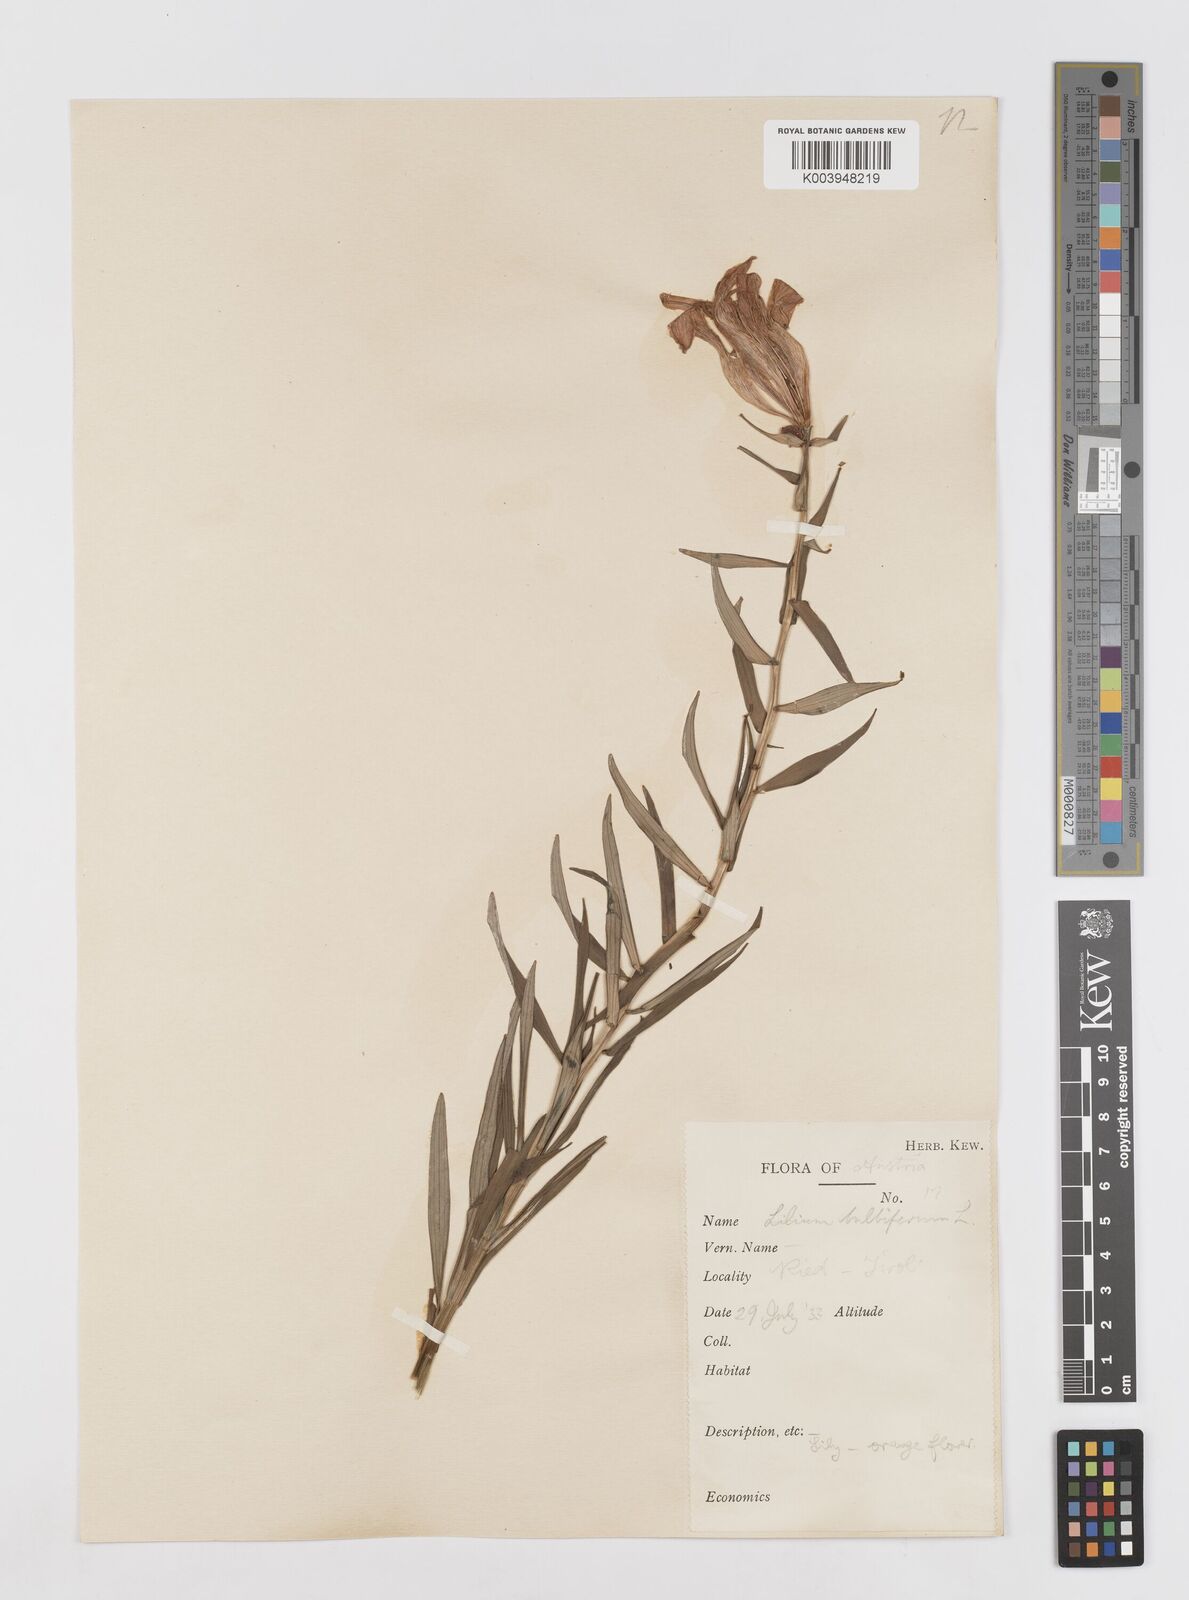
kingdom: Plantae
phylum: Tracheophyta
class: Liliopsida
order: Liliales
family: Liliaceae
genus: Lilium
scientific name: Lilium bulbiferum
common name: Orange lily
